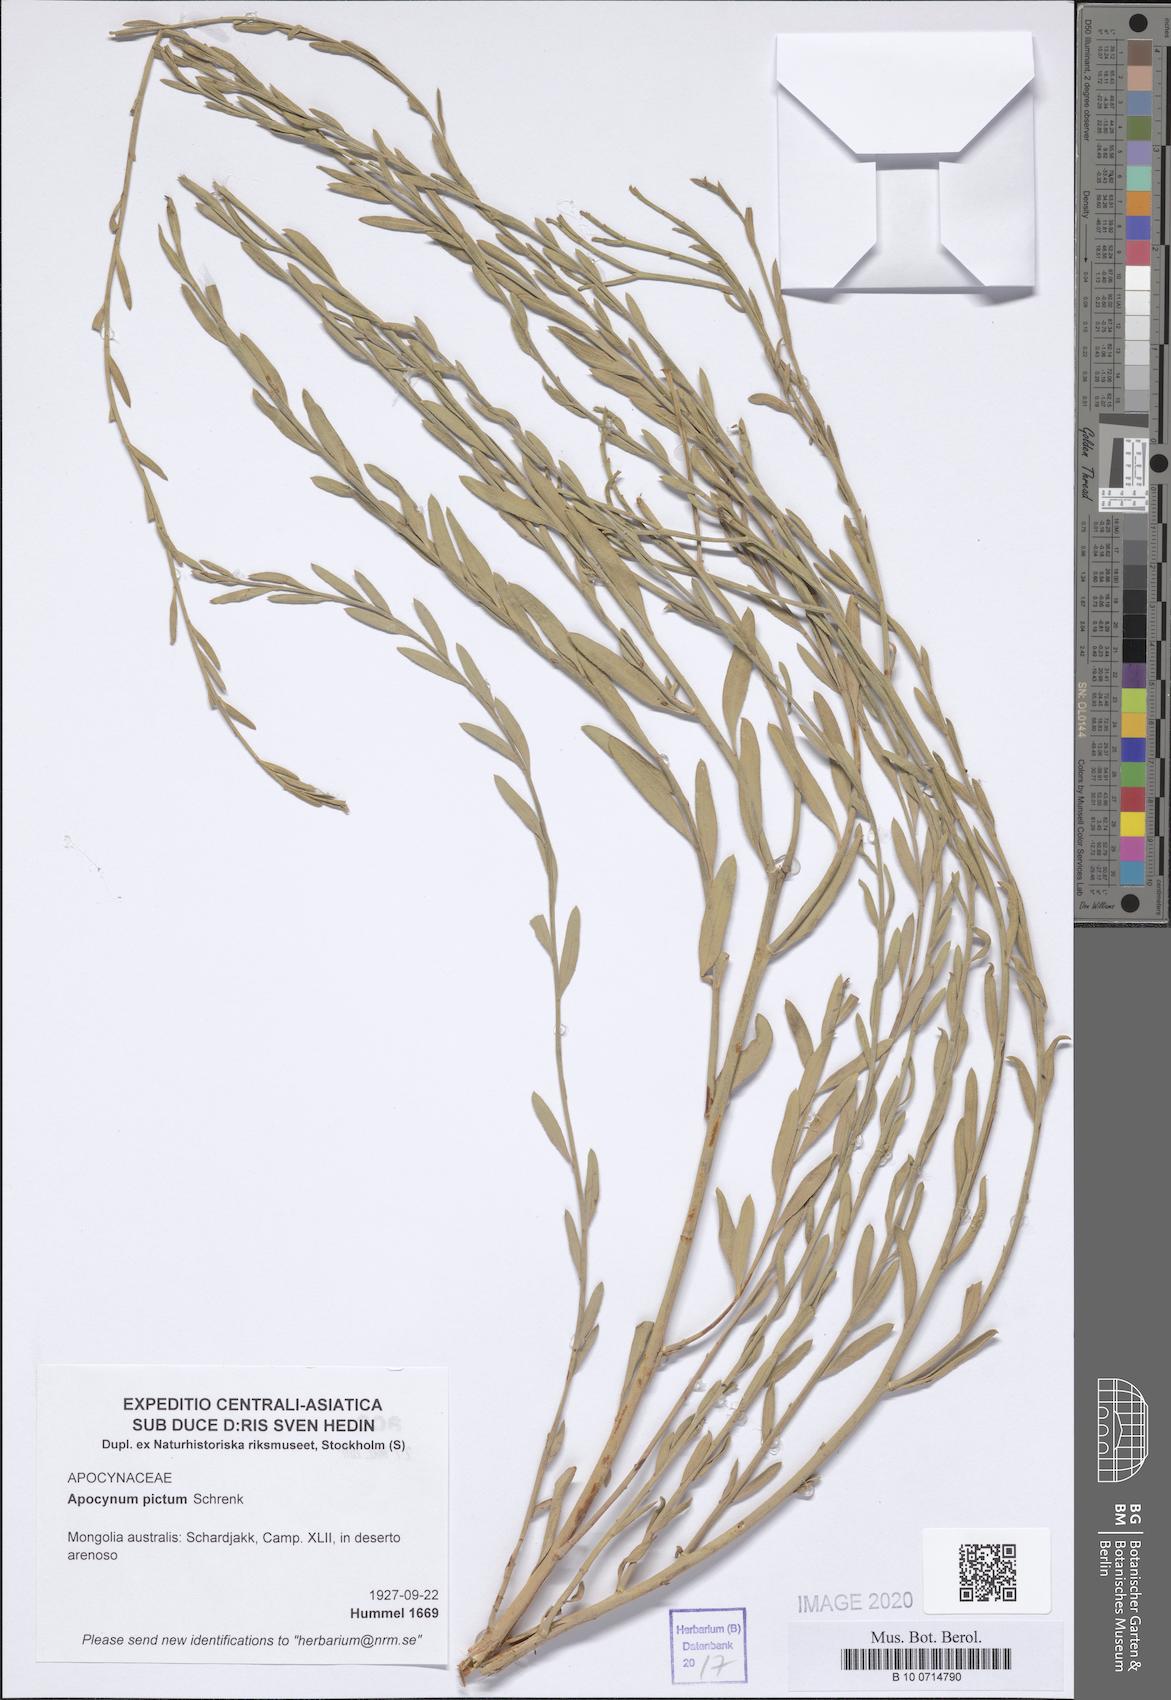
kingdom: Plantae
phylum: Tracheophyta
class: Magnoliopsida
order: Gentianales
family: Apocynaceae
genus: Poacynum
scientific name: Poacynum pictum
